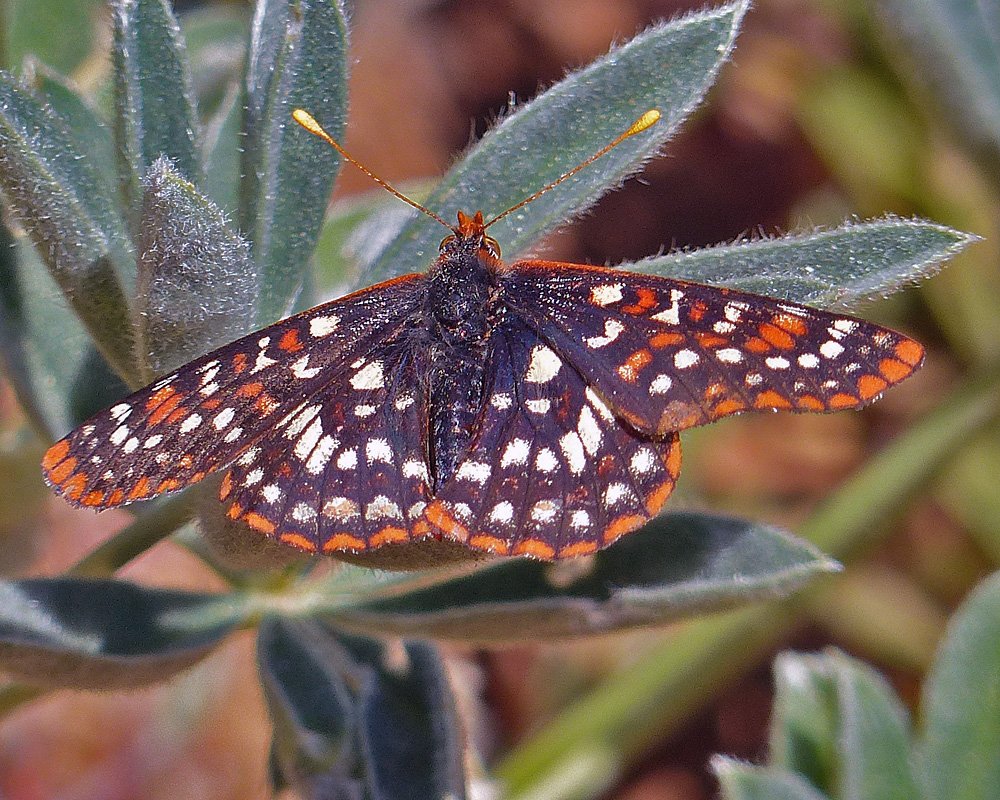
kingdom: Animalia
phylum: Arthropoda
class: Insecta
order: Lepidoptera
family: Nymphalidae
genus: Occidryas
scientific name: Occidryas colon
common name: Snowberry Checkerspot
